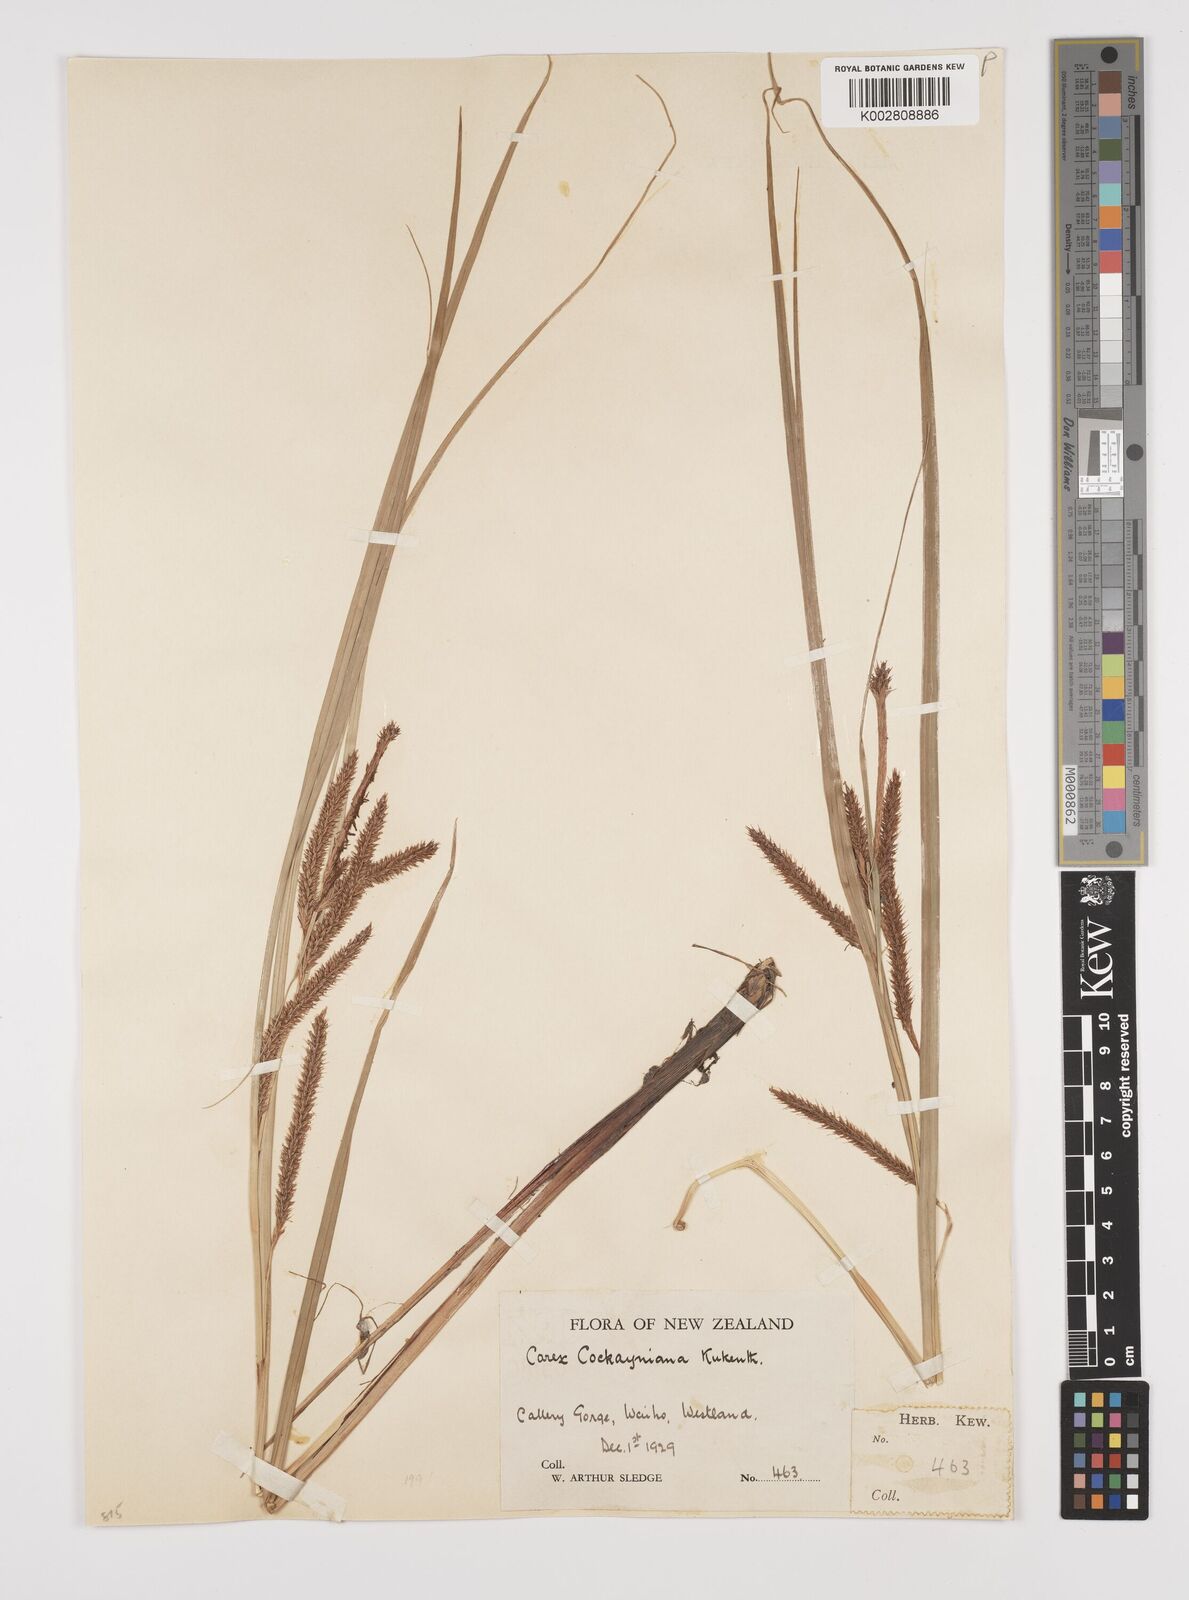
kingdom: Plantae
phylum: Tracheophyta
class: Liliopsida
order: Poales
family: Cyperaceae
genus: Carex
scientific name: Carex forsteri
